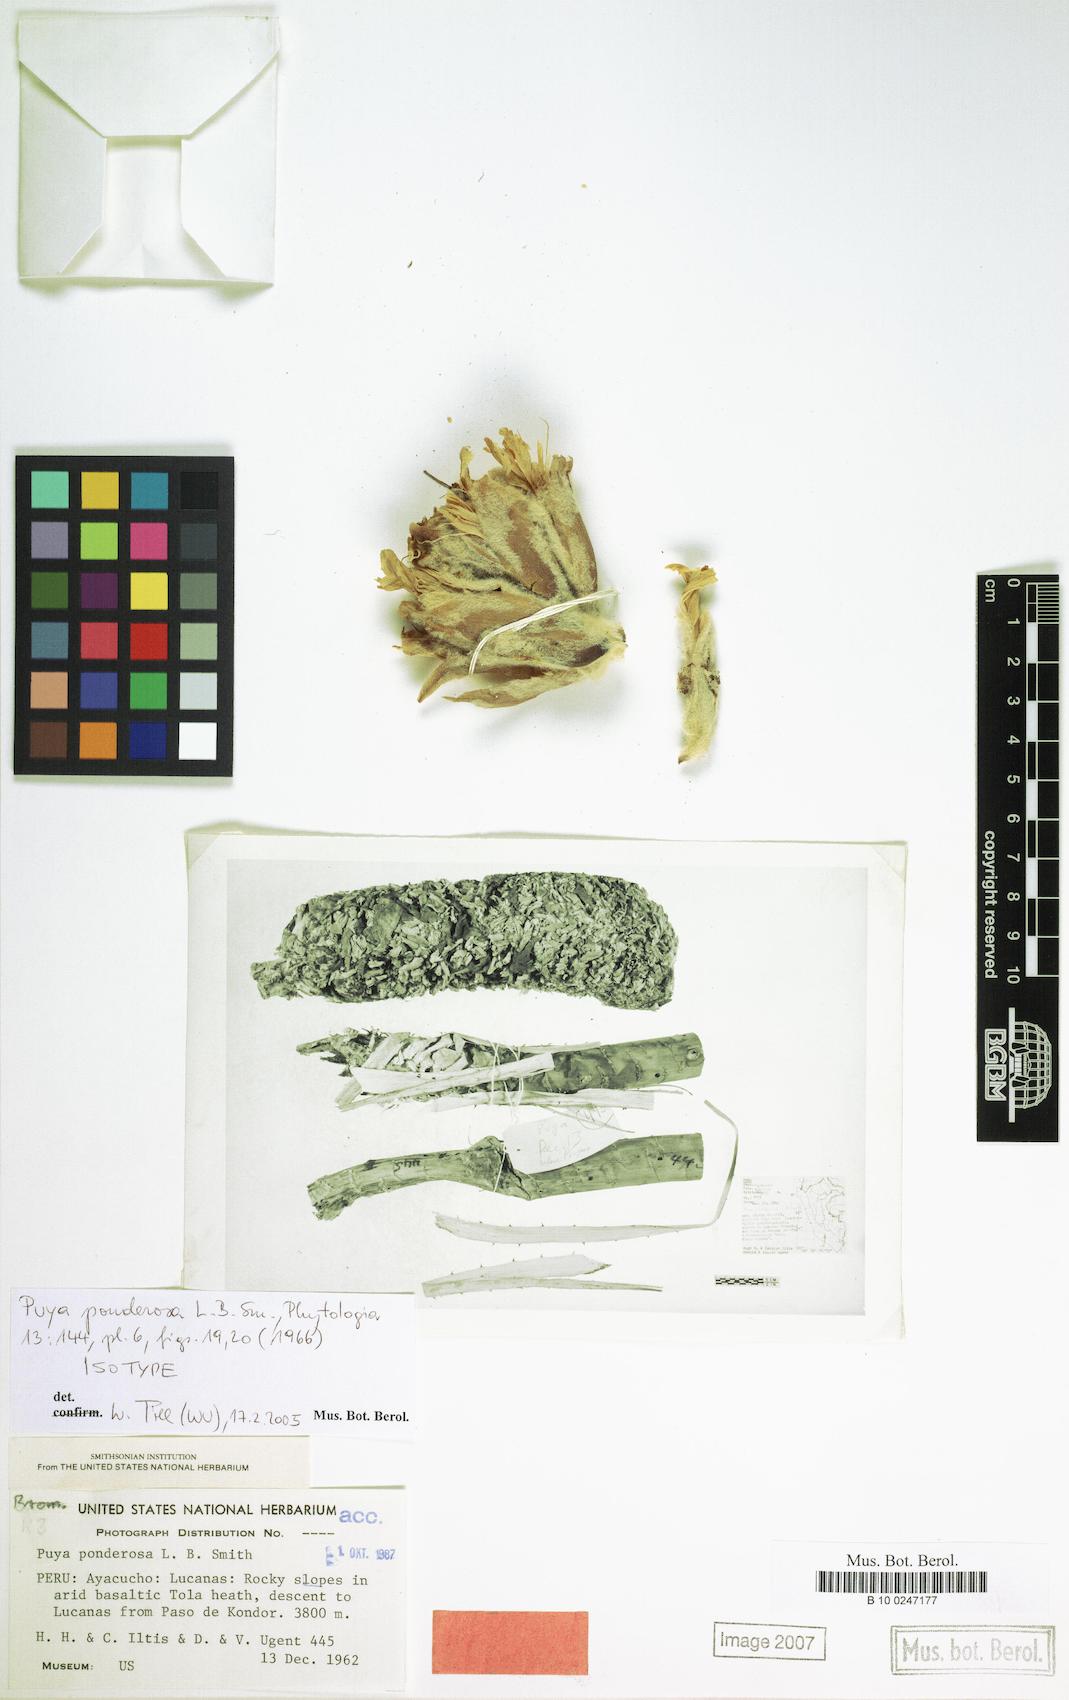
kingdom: Plantae
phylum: Tracheophyta
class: Liliopsida
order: Poales
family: Bromeliaceae
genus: Puya
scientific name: Puya ponderosa
